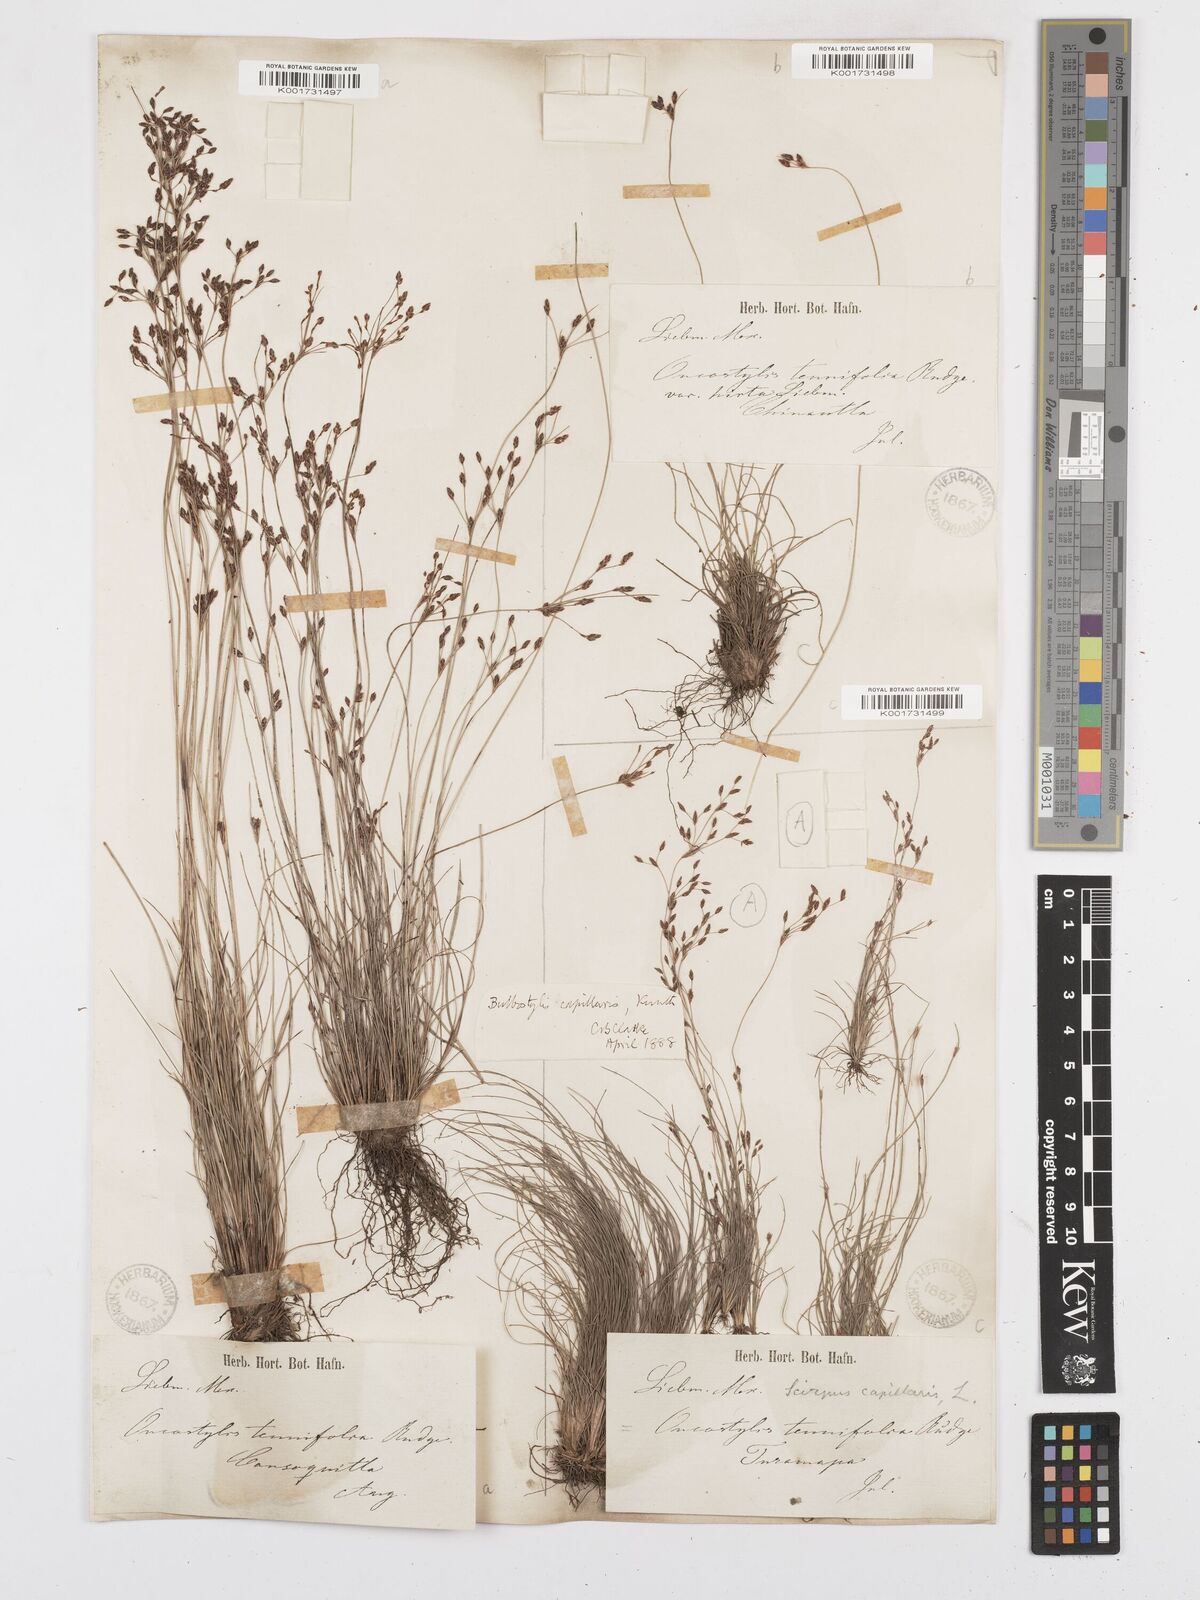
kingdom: Plantae
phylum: Tracheophyta
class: Liliopsida
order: Poales
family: Cyperaceae
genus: Bulbostylis
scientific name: Bulbostylis capillaris
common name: Densetuft hairsedge
